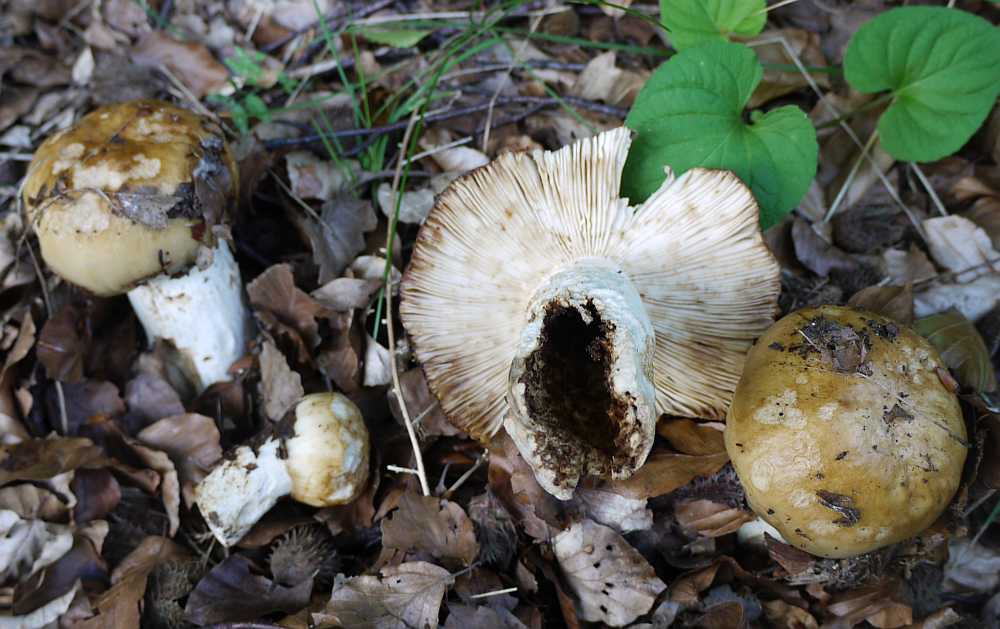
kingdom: Fungi
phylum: Basidiomycota
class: Agaricomycetes
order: Russulales
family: Russulaceae
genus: Russula
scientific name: Russula foetens
